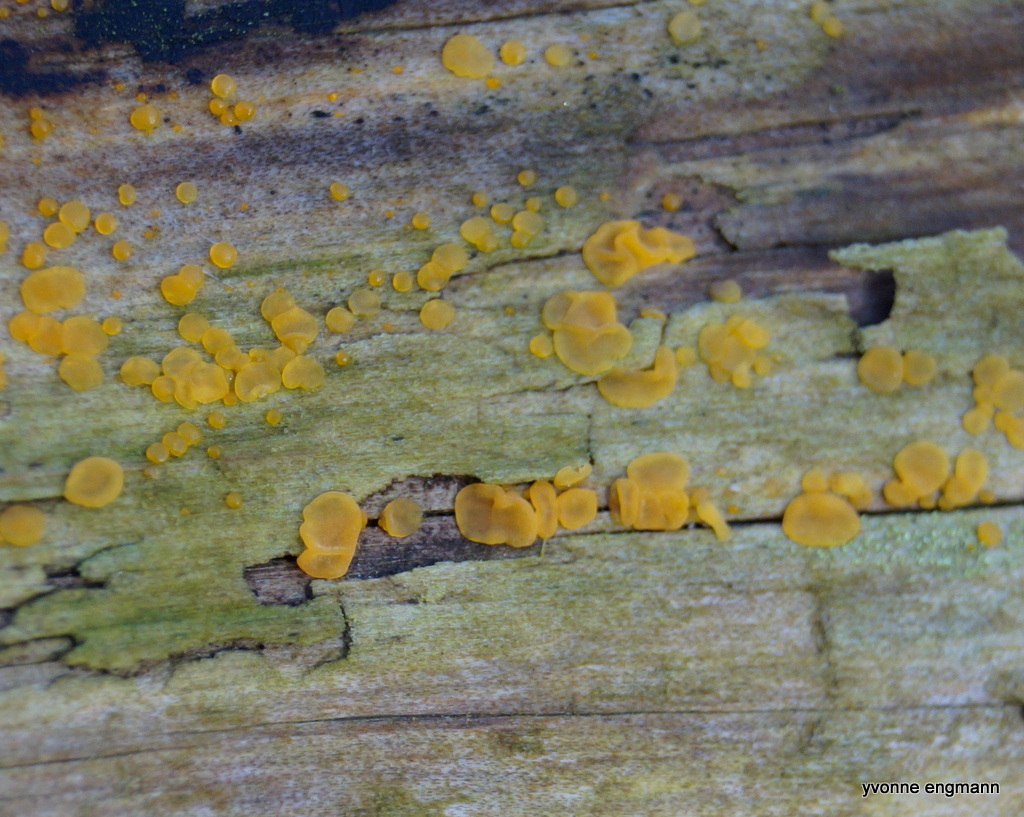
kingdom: Fungi
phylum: Basidiomycota
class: Dacrymycetes
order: Dacrymycetales
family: Dacrymycetaceae
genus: Dacrymyces
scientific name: Dacrymyces
